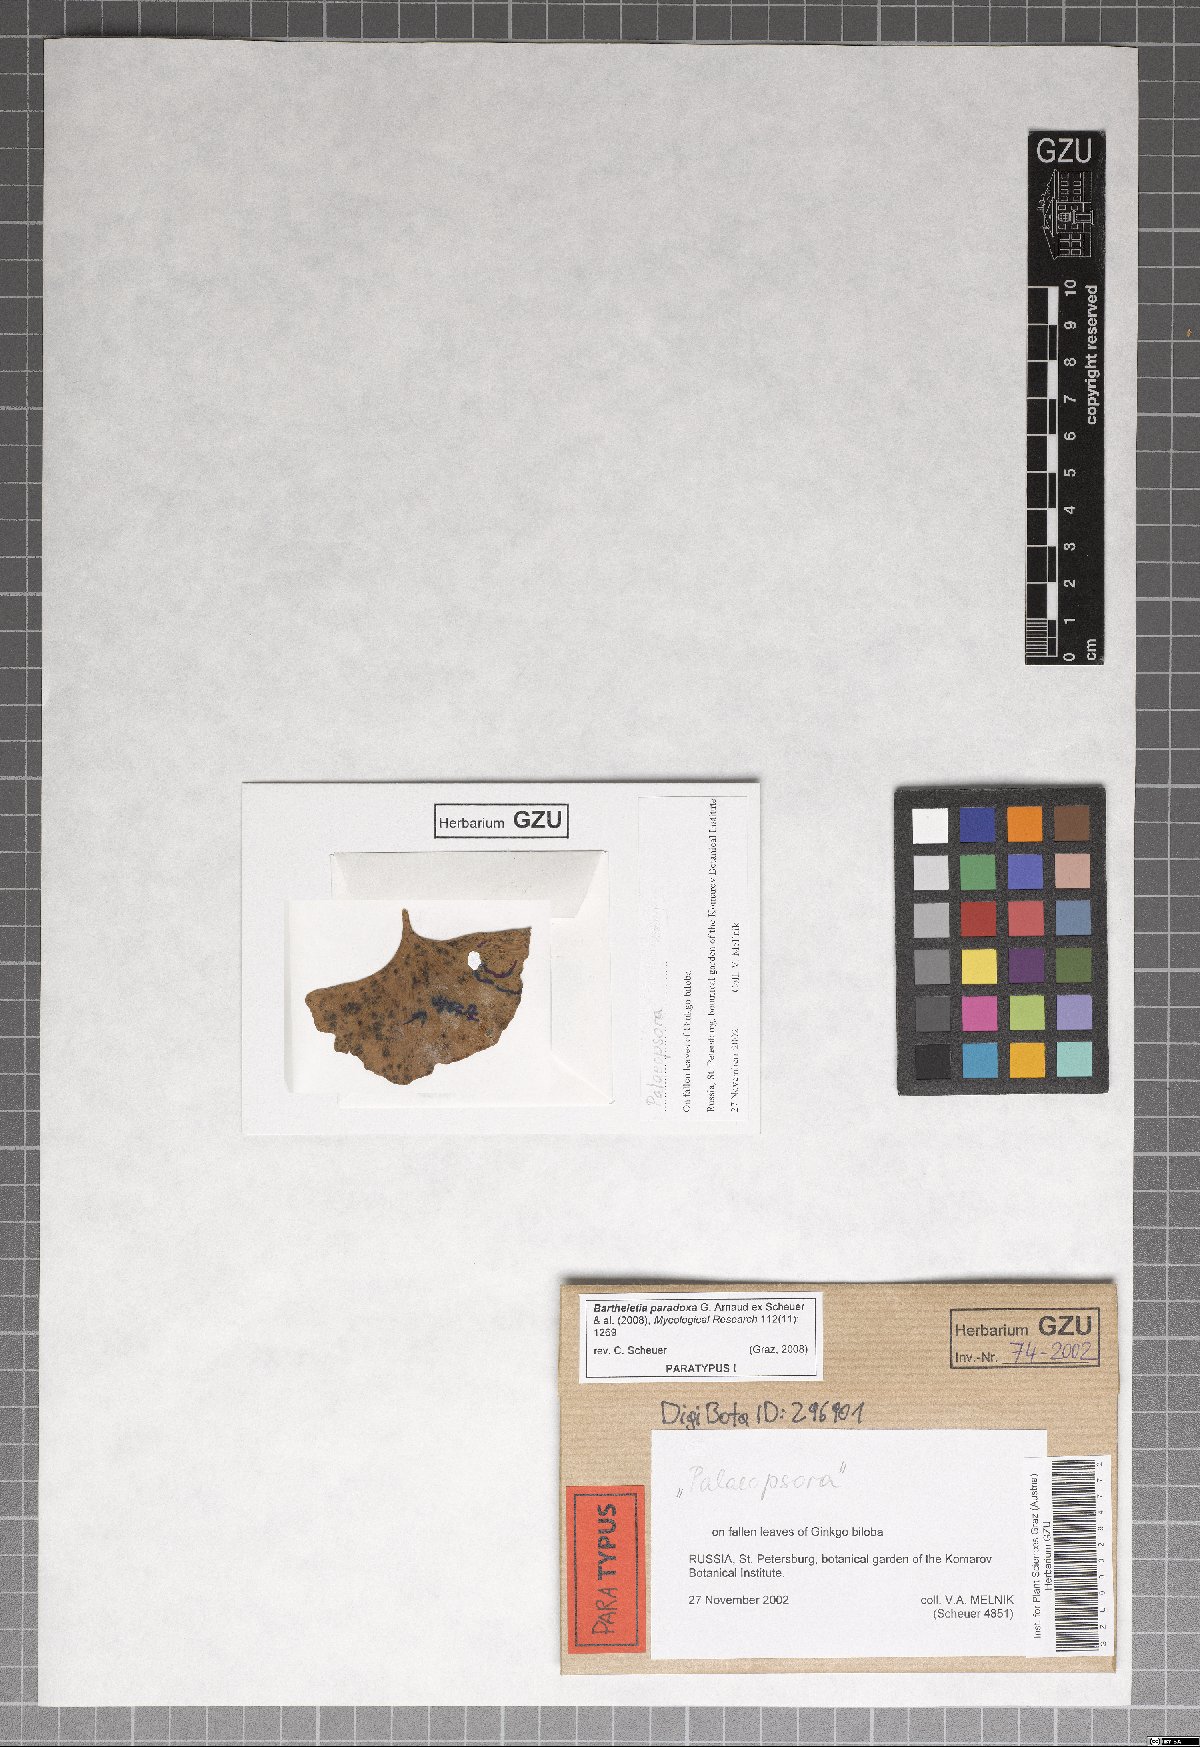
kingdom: Fungi
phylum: Basidiomycota
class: Wallemiomycetes
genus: Bartheletia
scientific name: Bartheletia paradoxa
